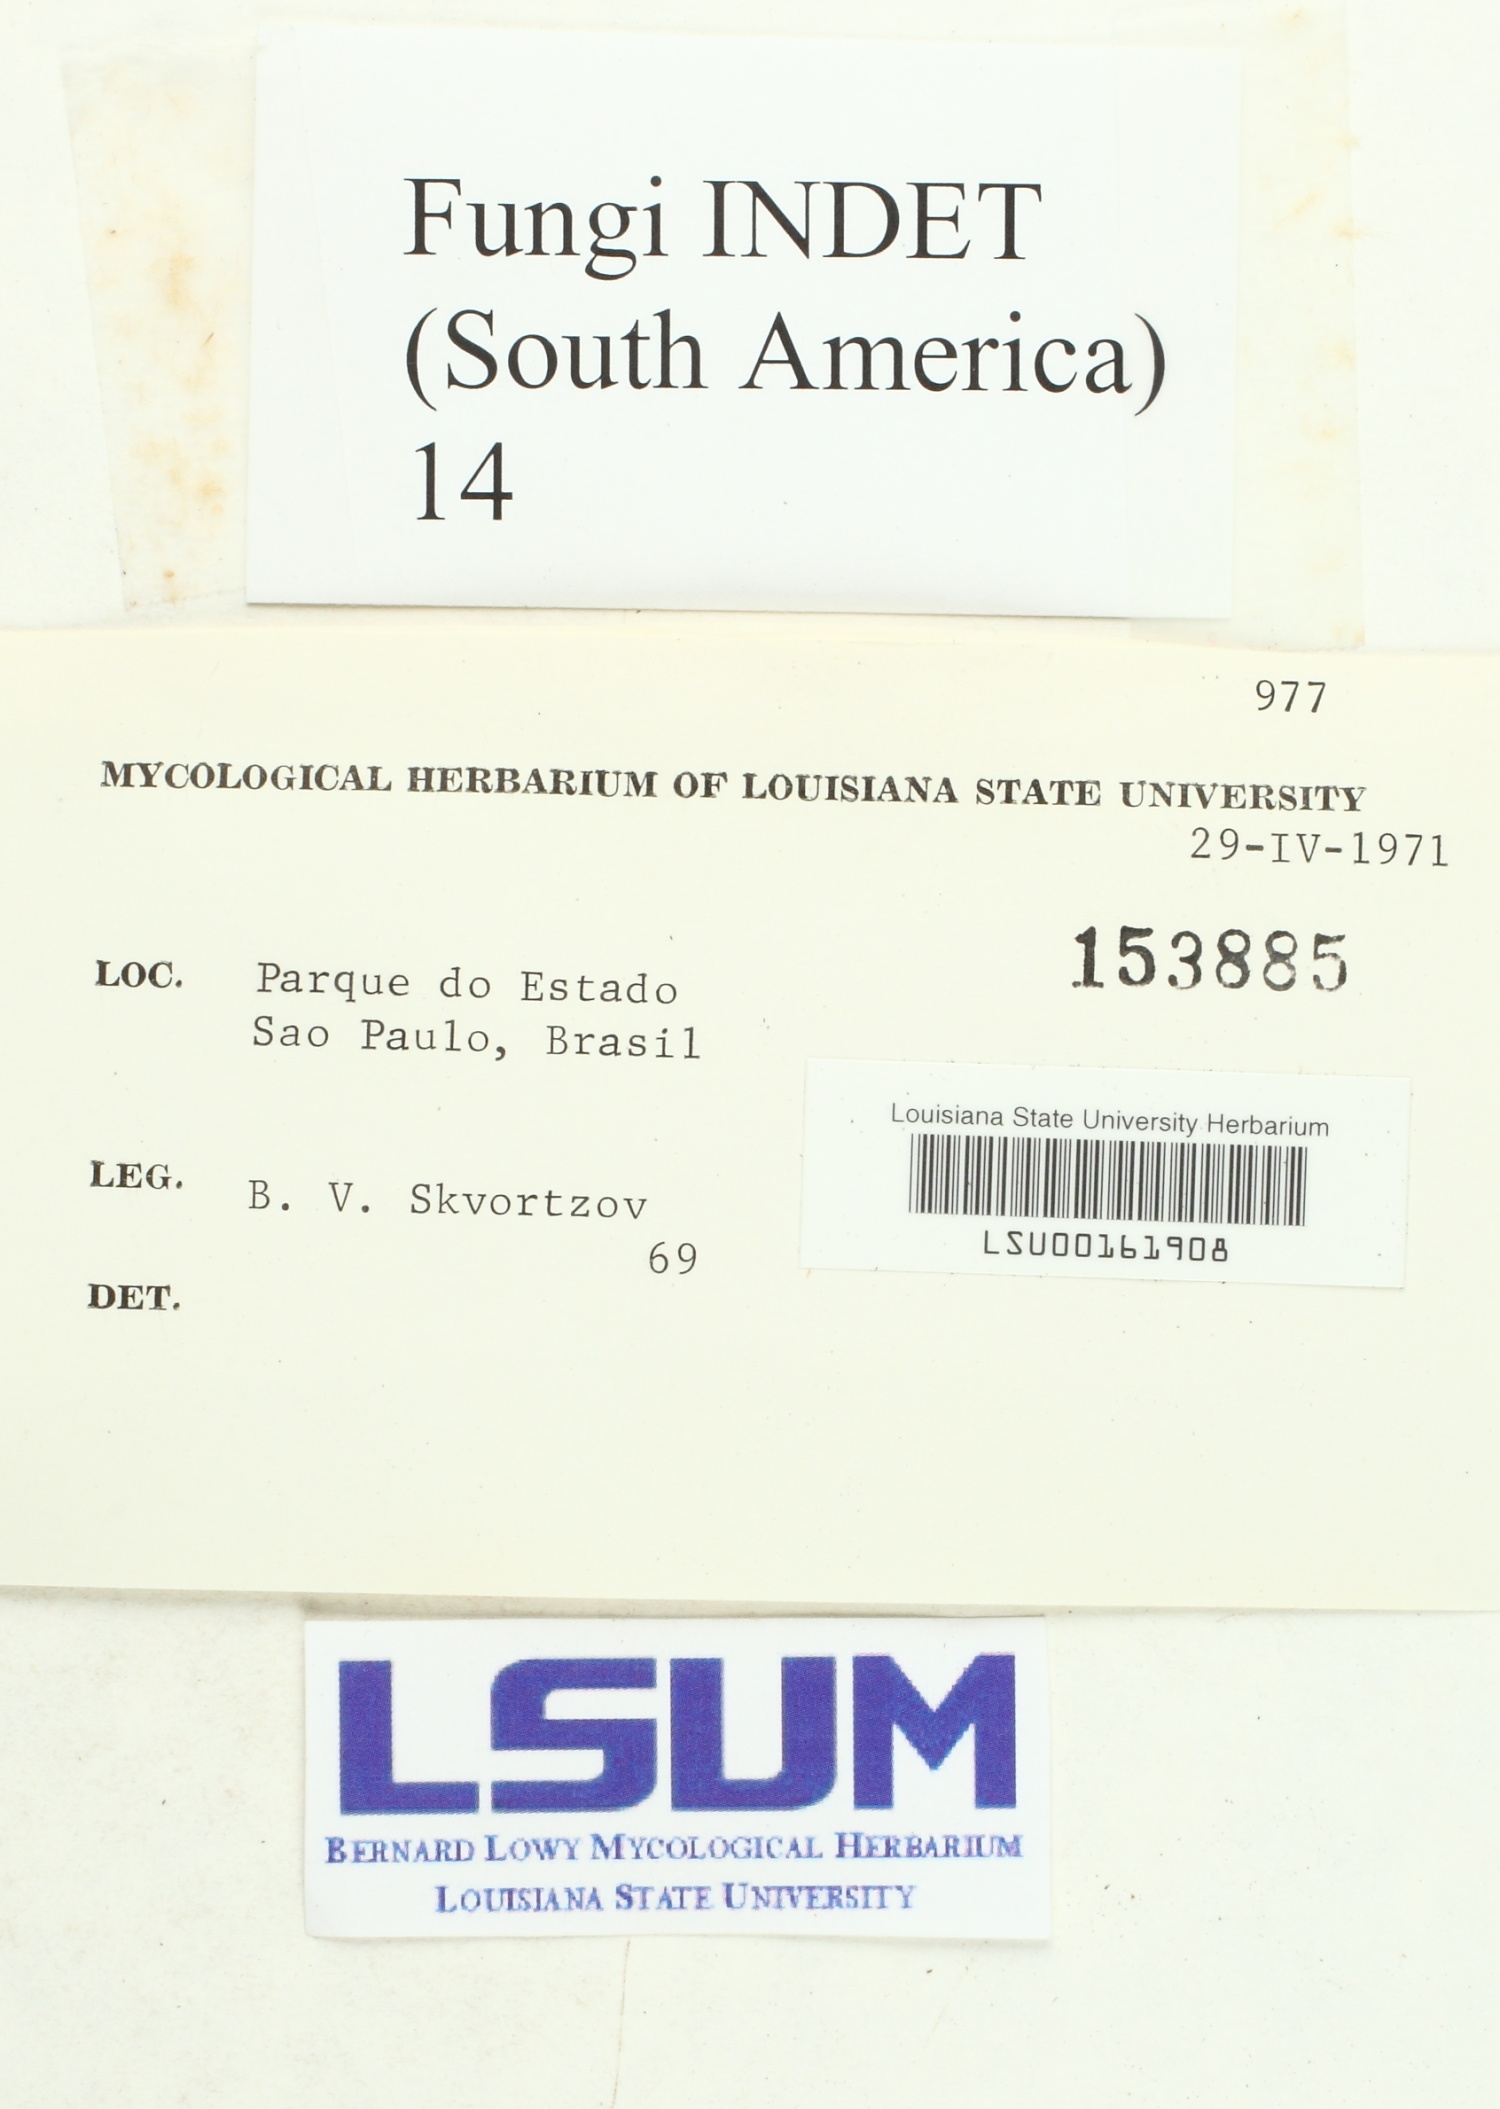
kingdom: Fungi
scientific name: Fungi
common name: Fungi
